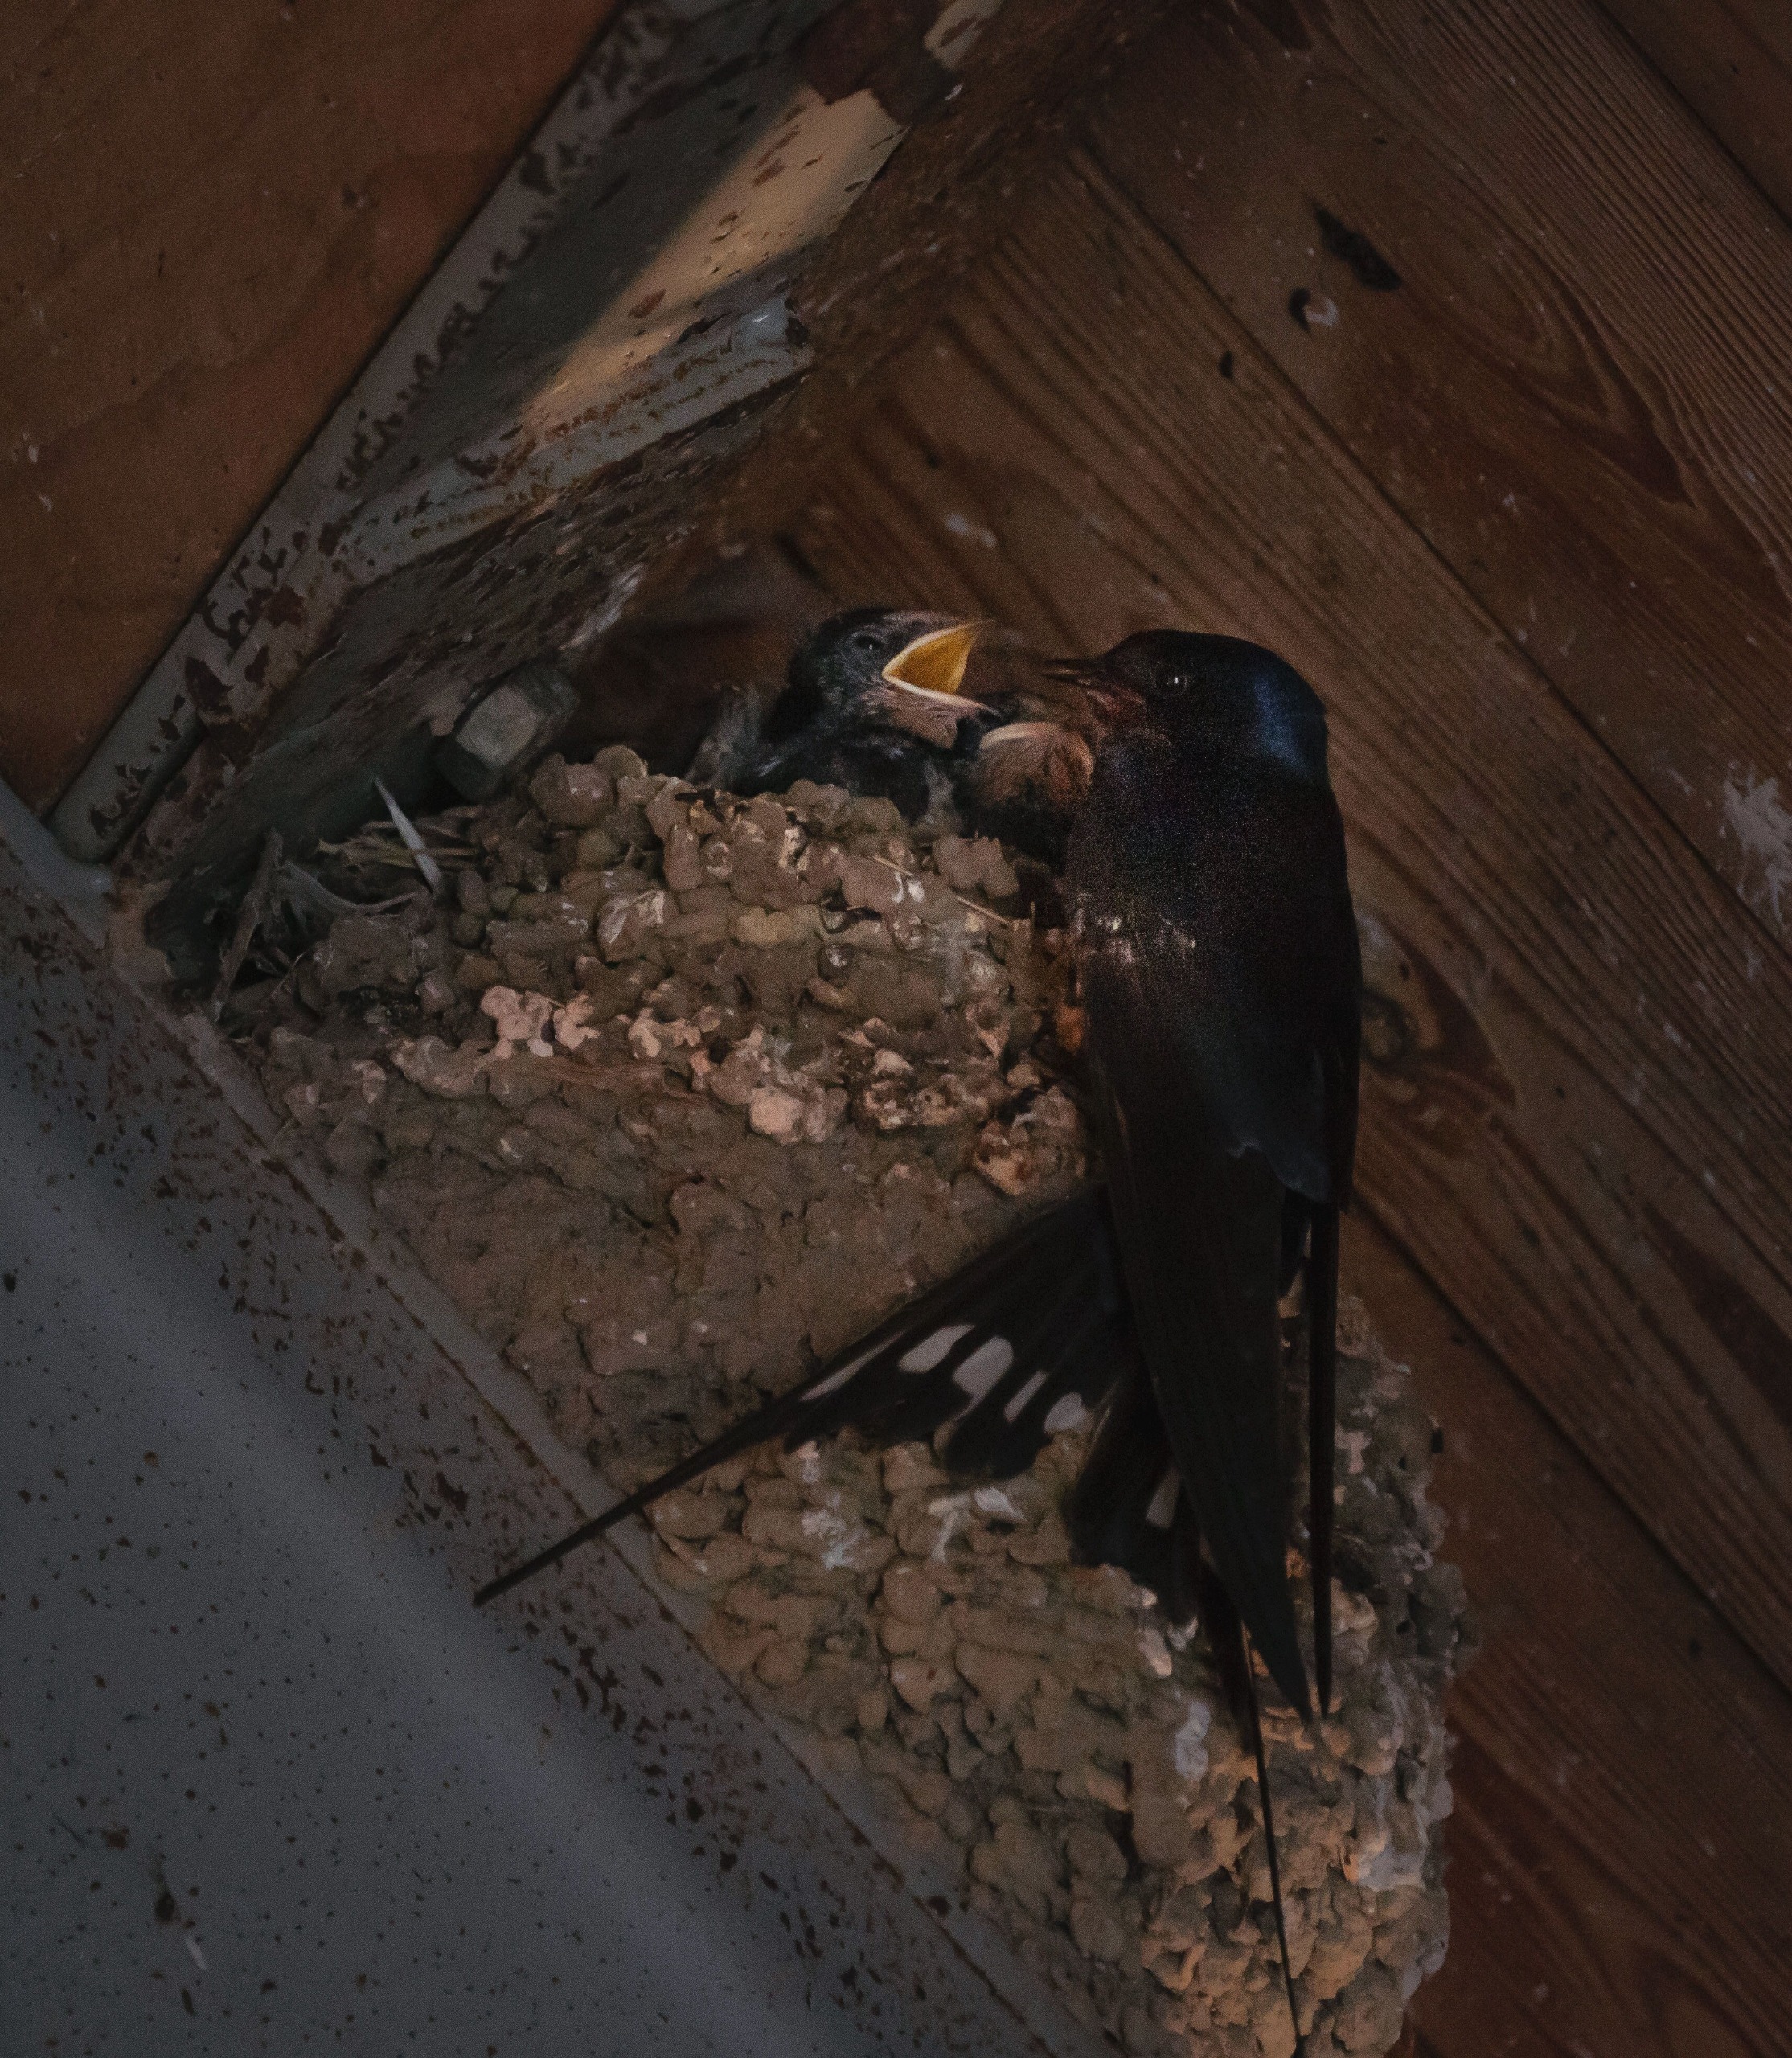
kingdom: Animalia
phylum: Chordata
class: Aves
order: Passeriformes
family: Hirundinidae
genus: Hirundo
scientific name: Hirundo rustica
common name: Landsvale
